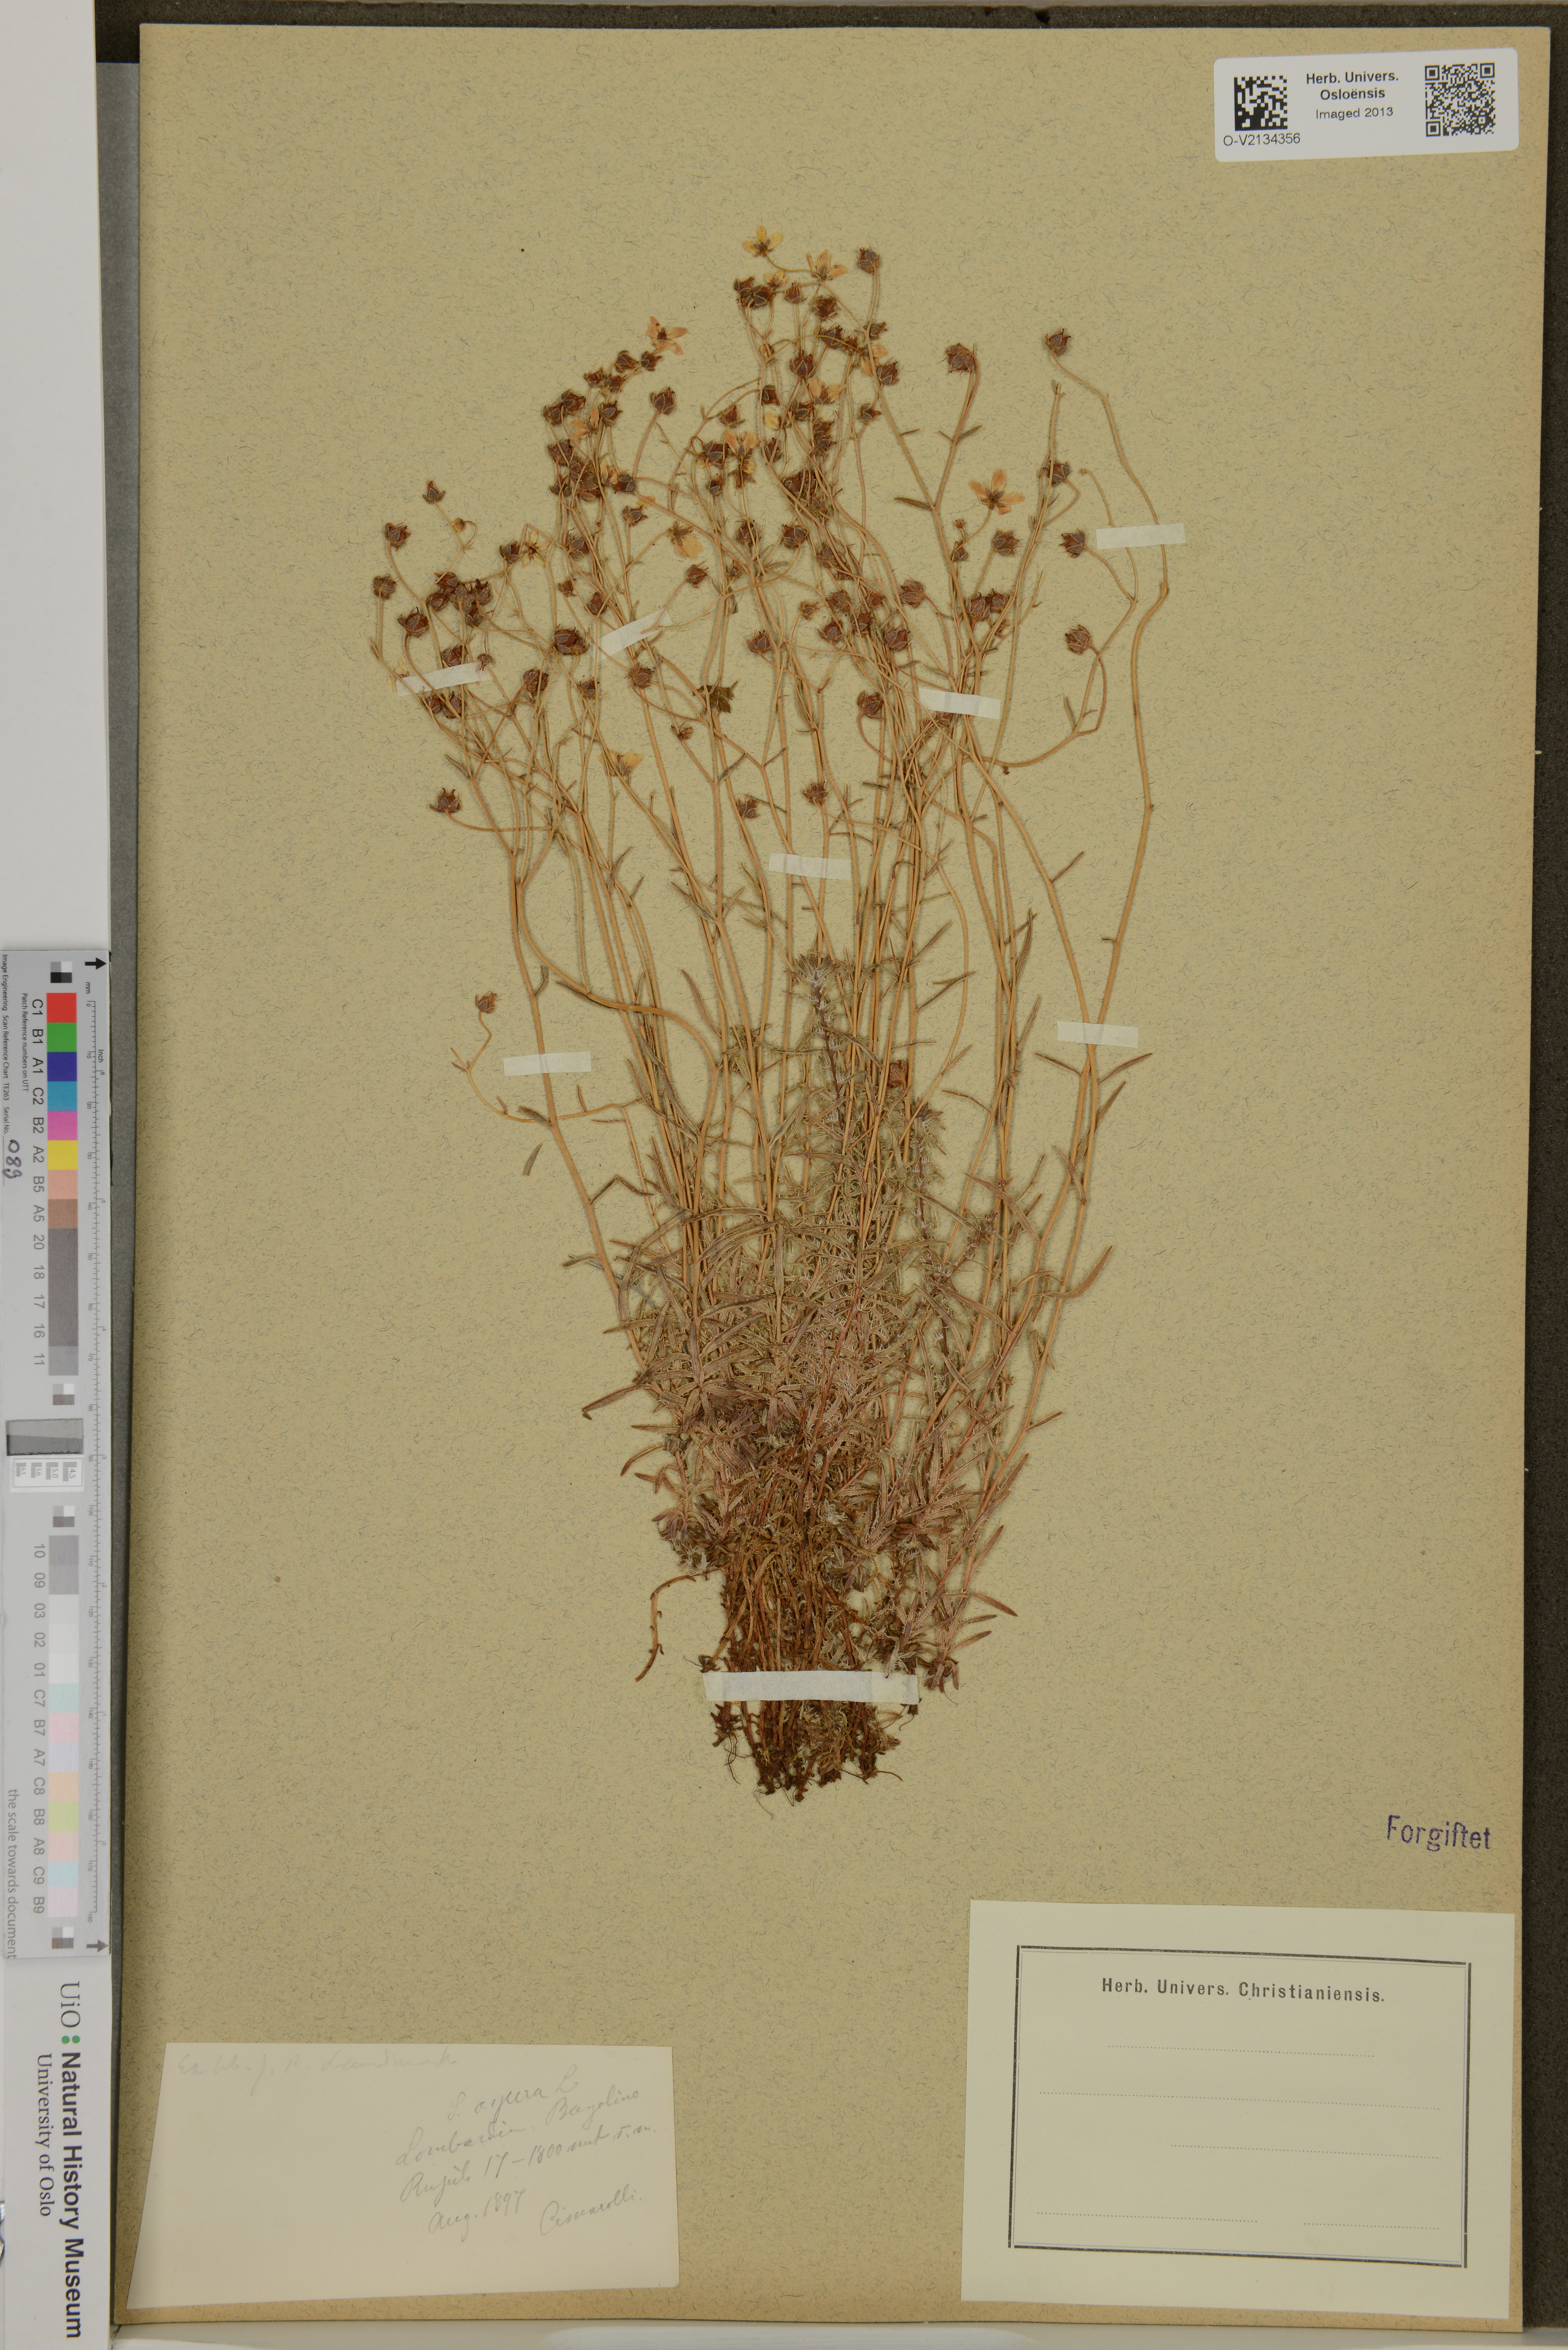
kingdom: Plantae
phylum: Tracheophyta
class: Magnoliopsida
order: Saxifragales
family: Saxifragaceae
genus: Saxifraga
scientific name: Saxifraga aspera
